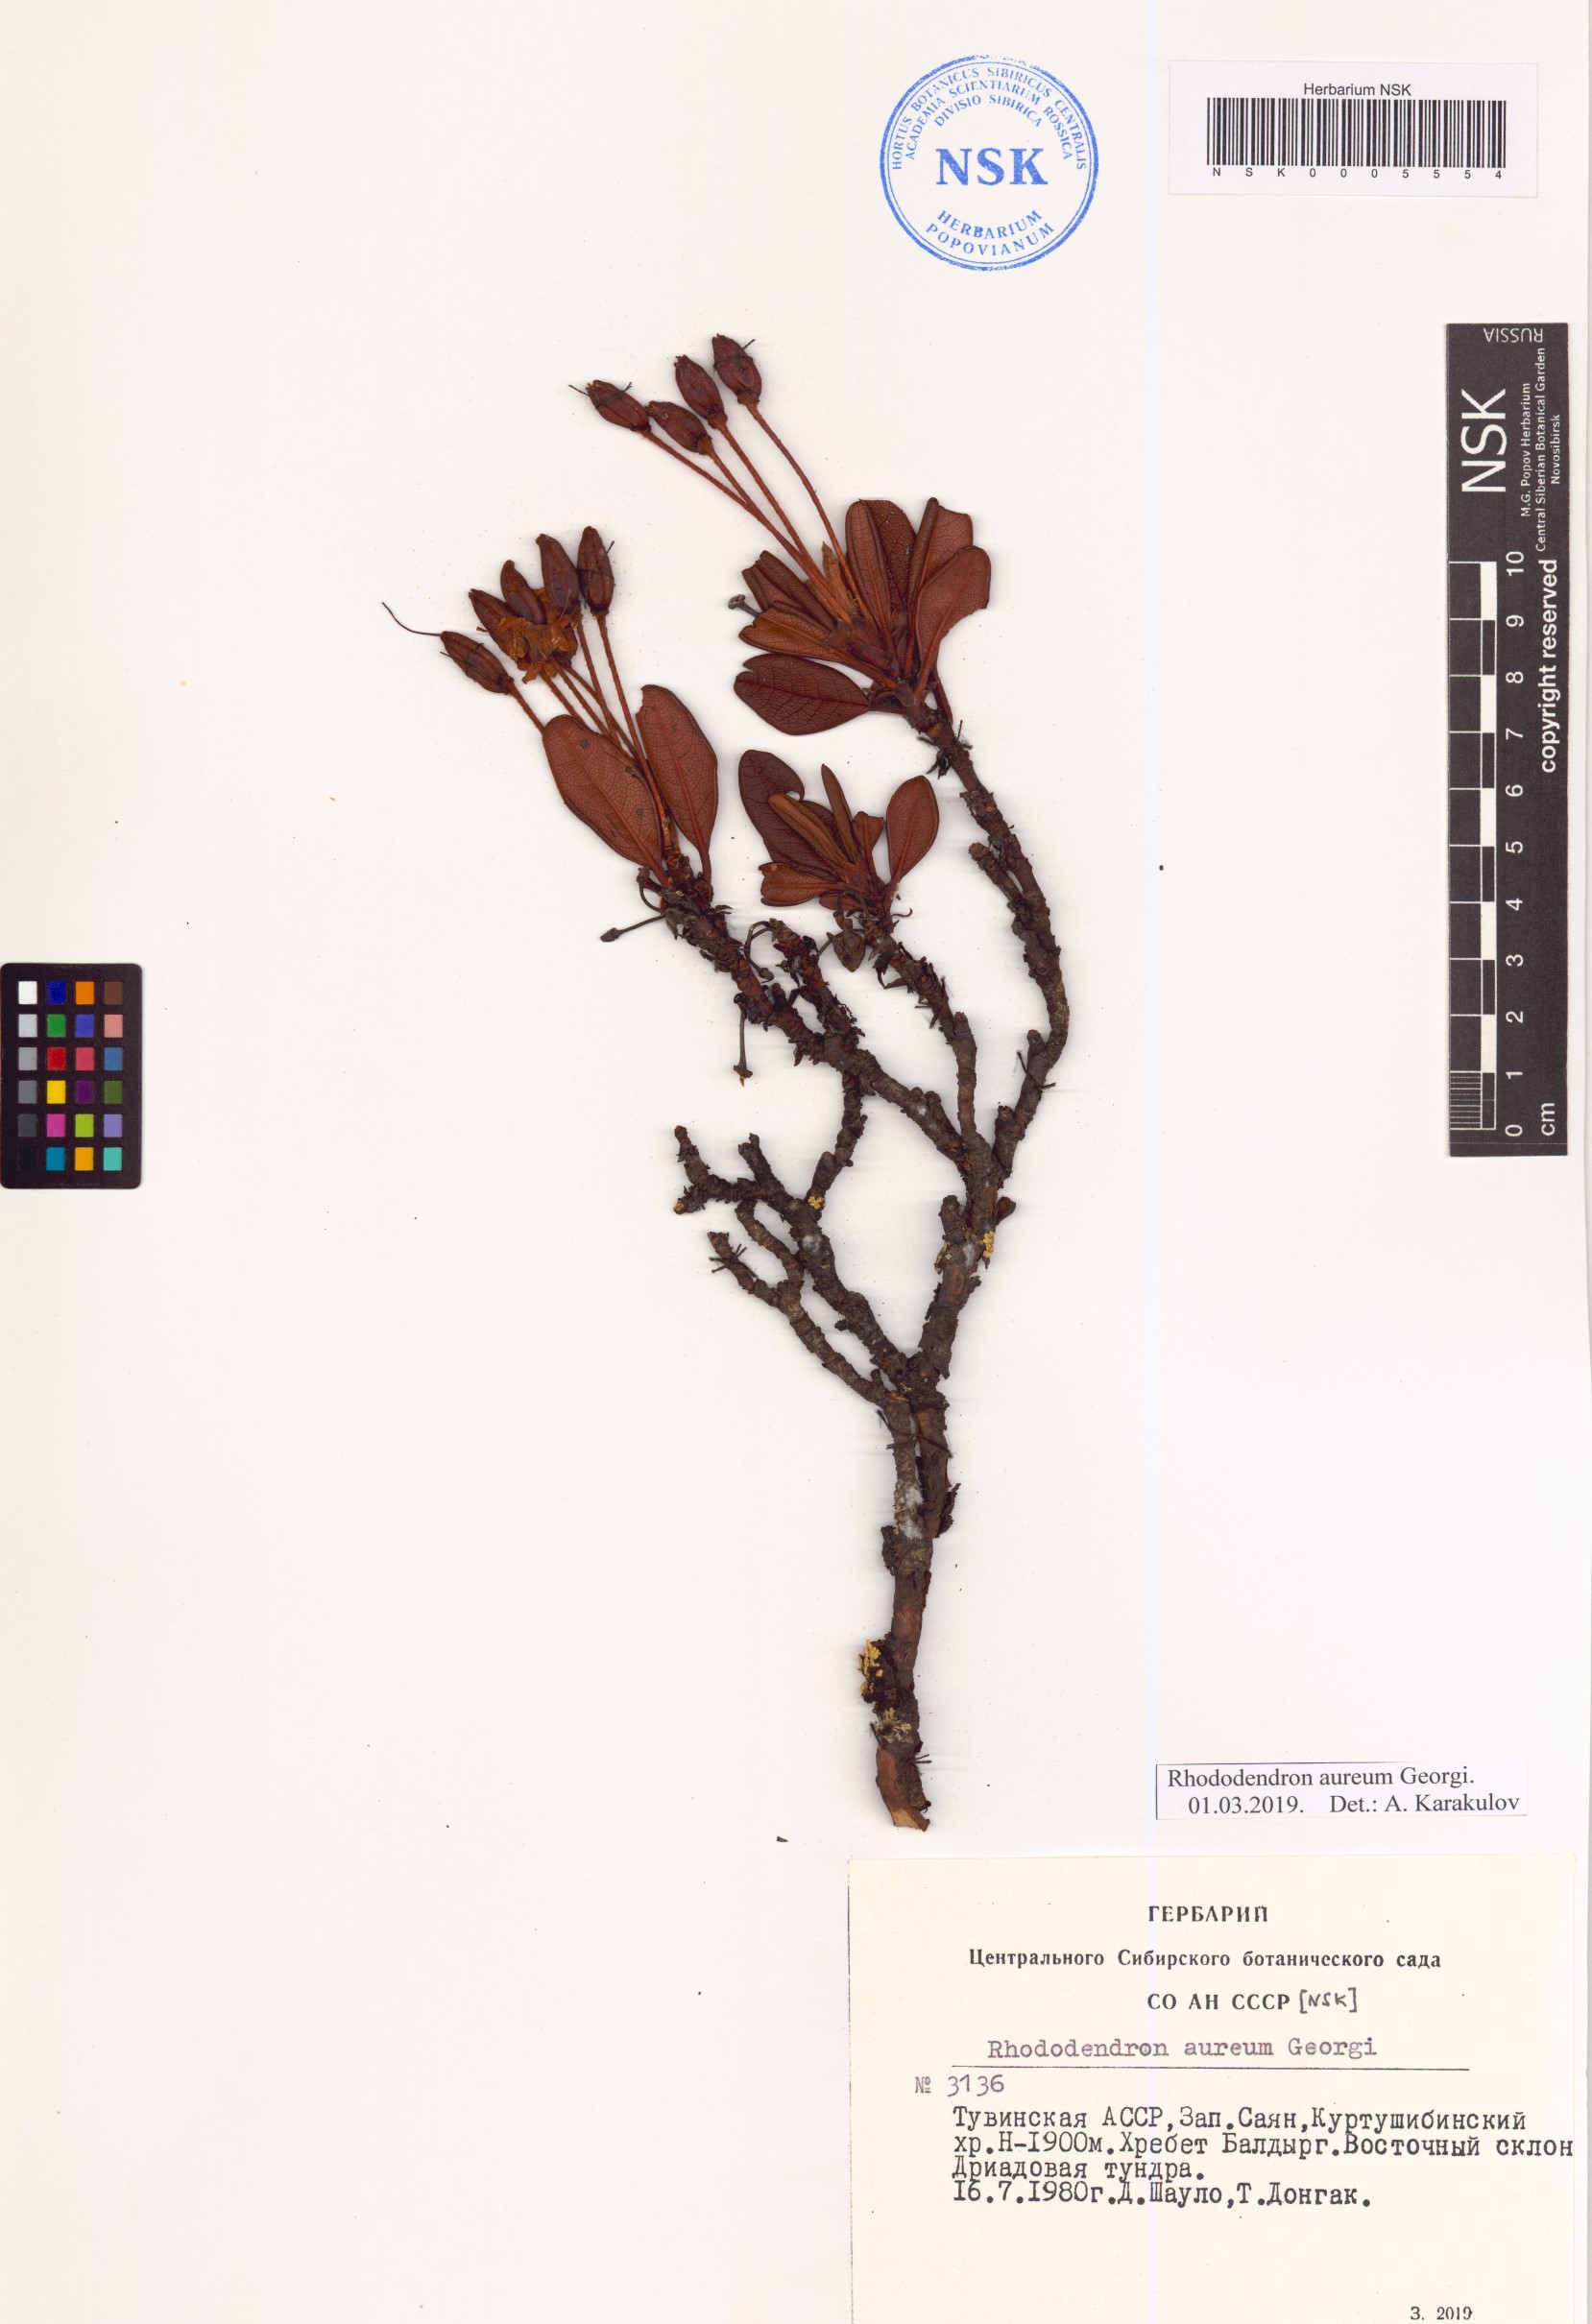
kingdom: Plantae
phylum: Tracheophyta
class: Magnoliopsida
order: Ericales
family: Ericaceae
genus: Rhododendron
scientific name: Rhododendron aureum
